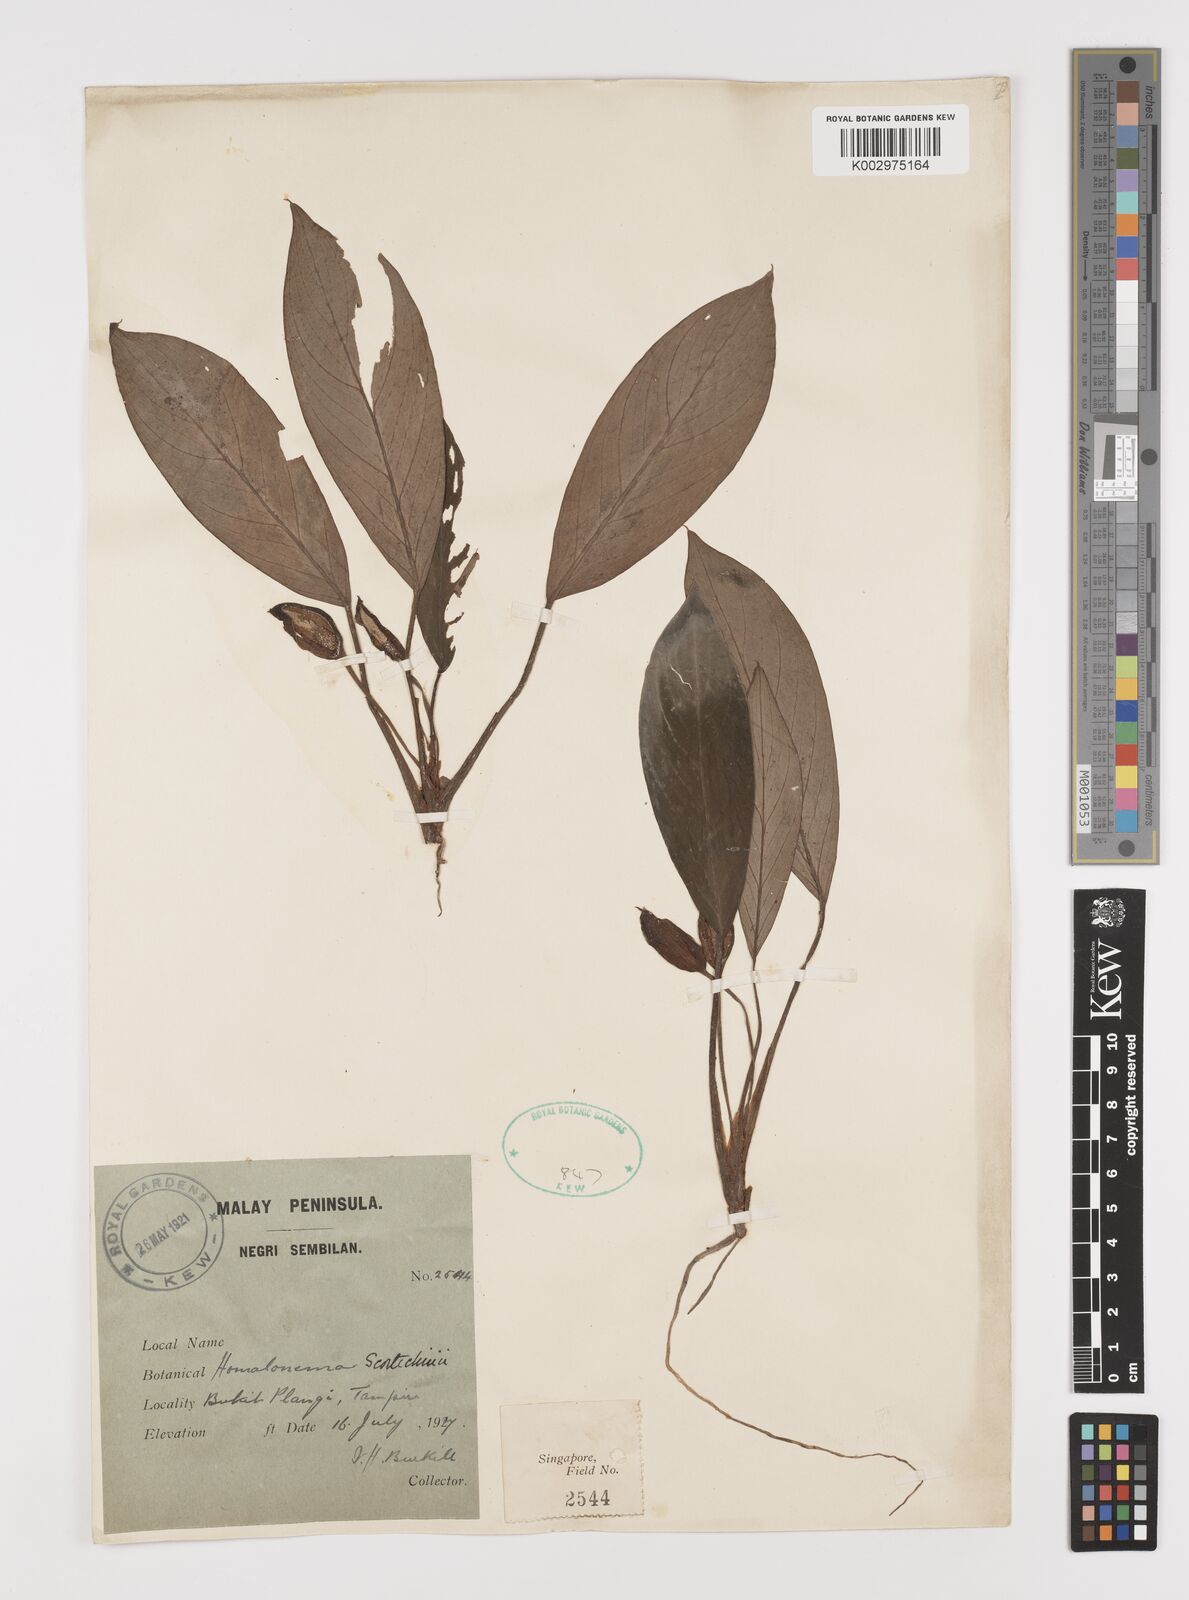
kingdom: Plantae
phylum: Tracheophyta
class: Liliopsida
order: Alismatales
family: Araceae
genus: Homalomena
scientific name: Homalomena
